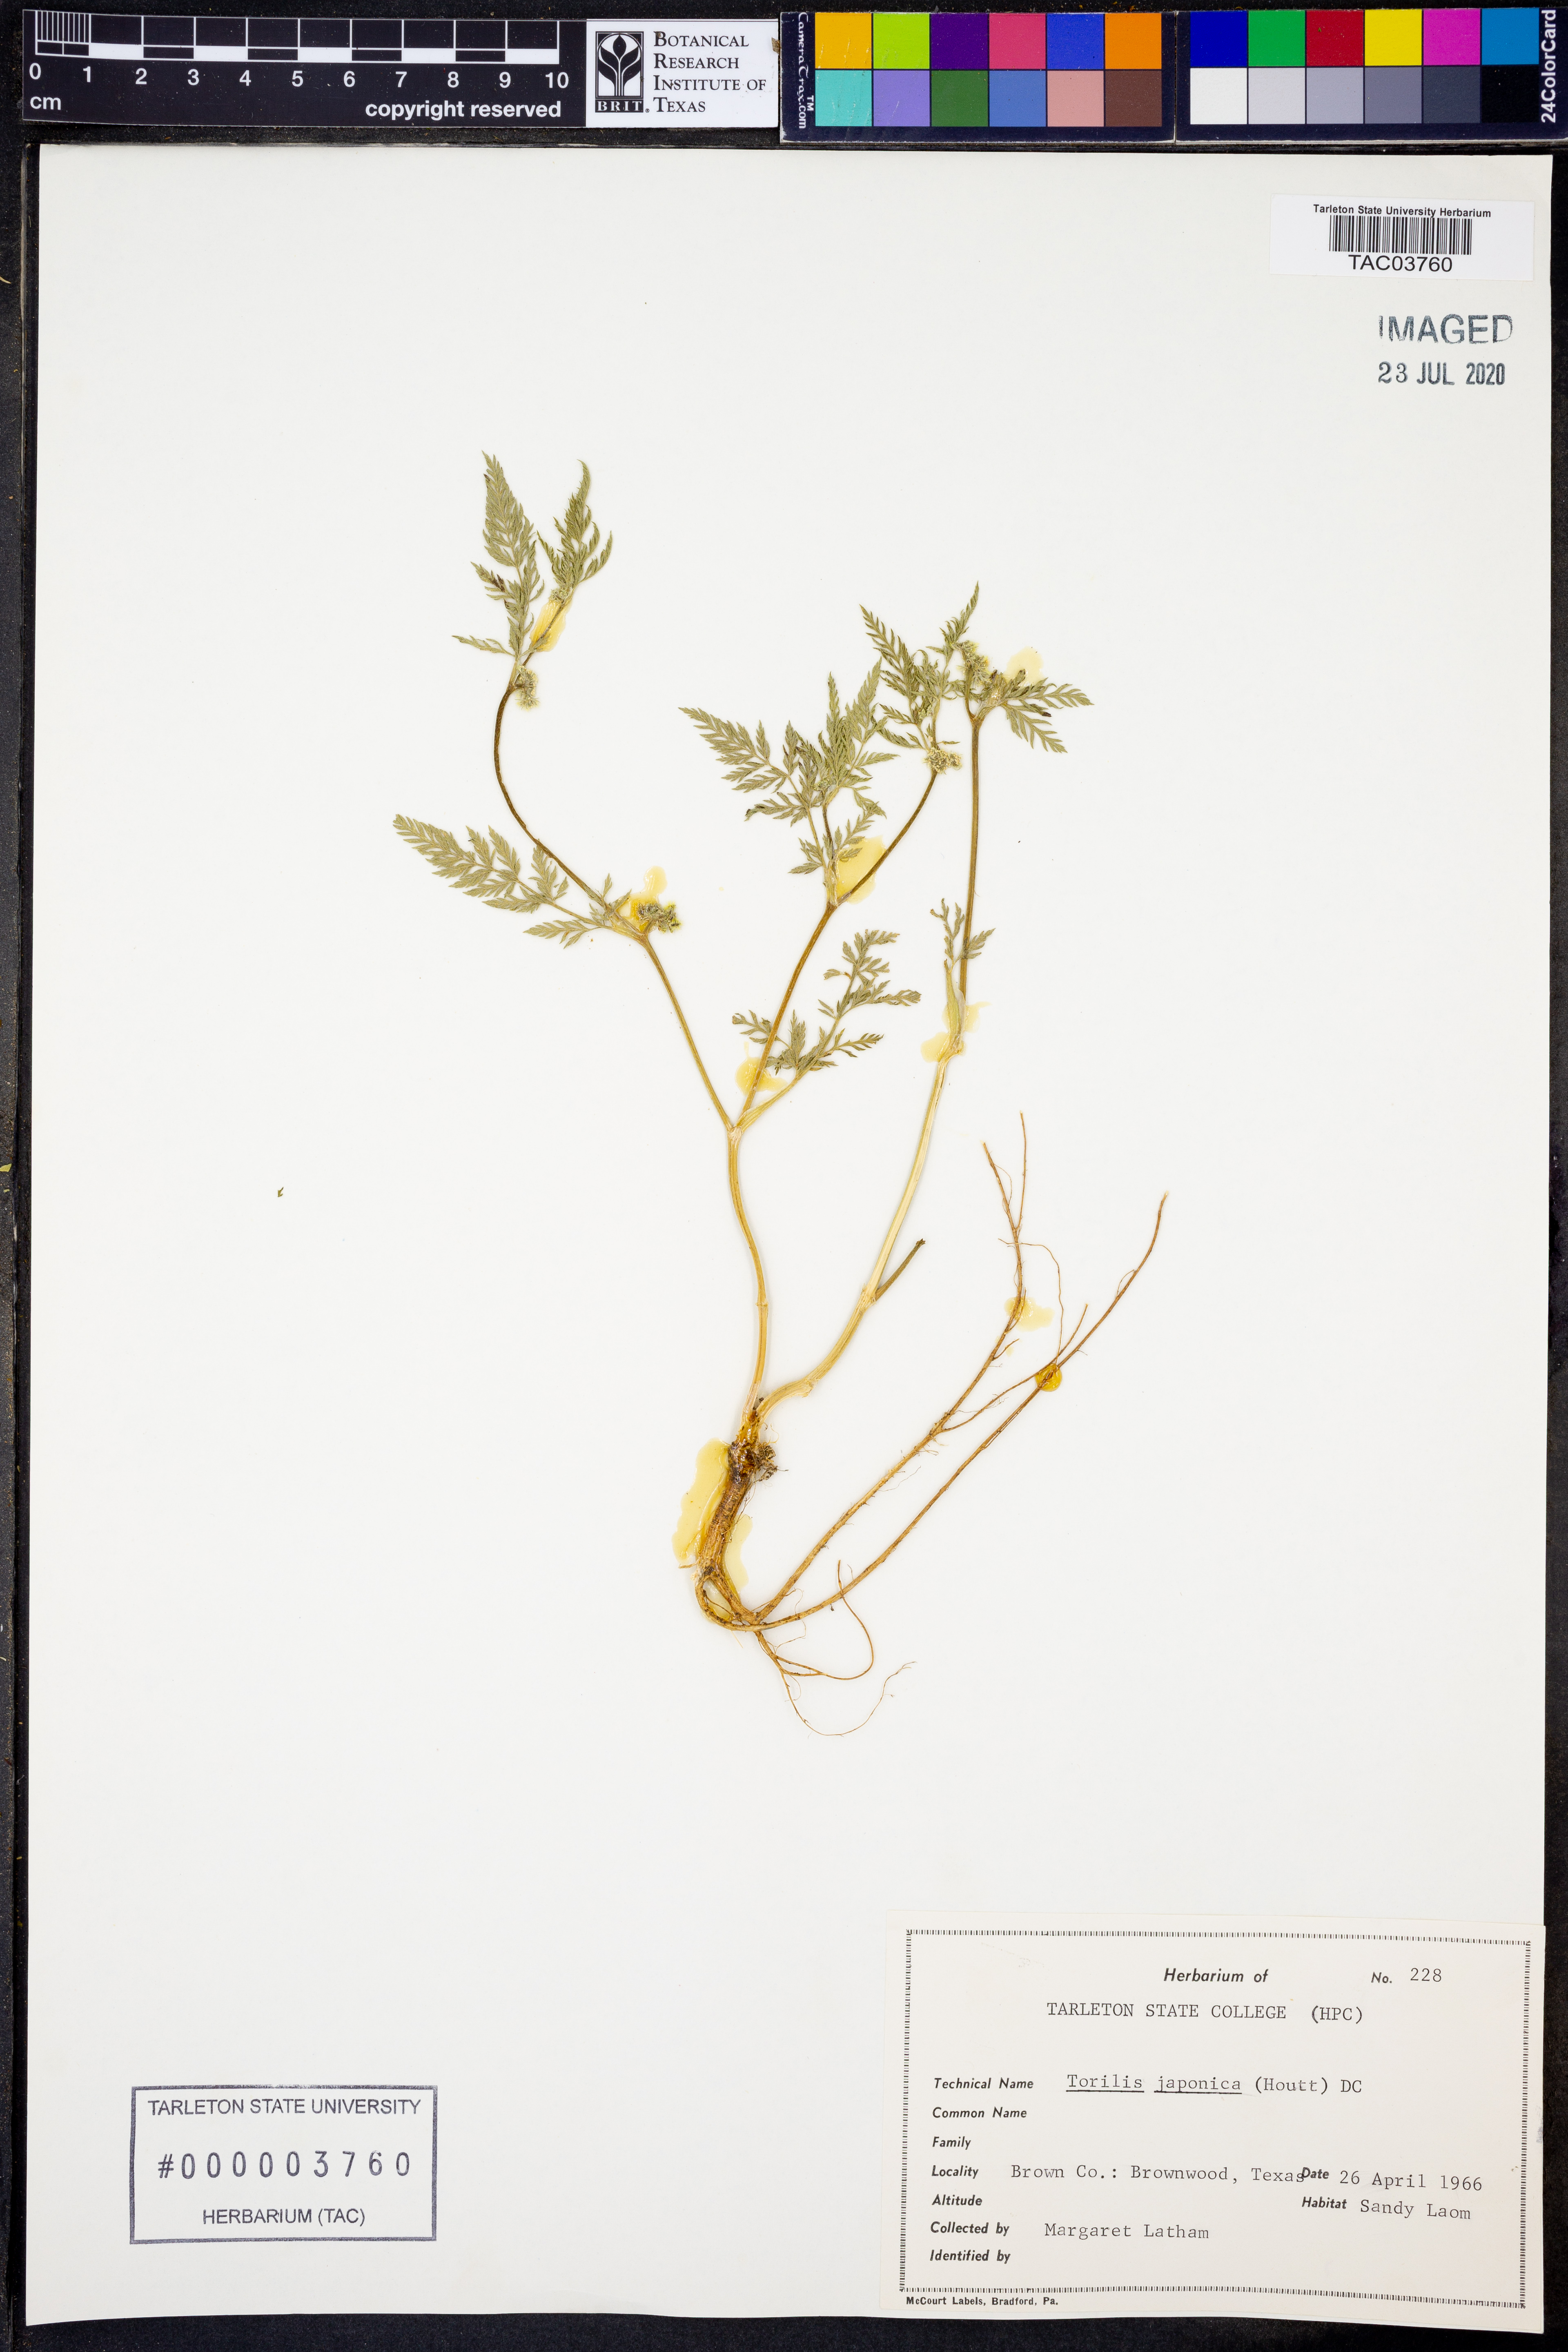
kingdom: Plantae
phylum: Tracheophyta
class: Magnoliopsida
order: Apiales
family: Apiaceae
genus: Torilis
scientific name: Torilis japonica
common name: Upright hedge-parsley
